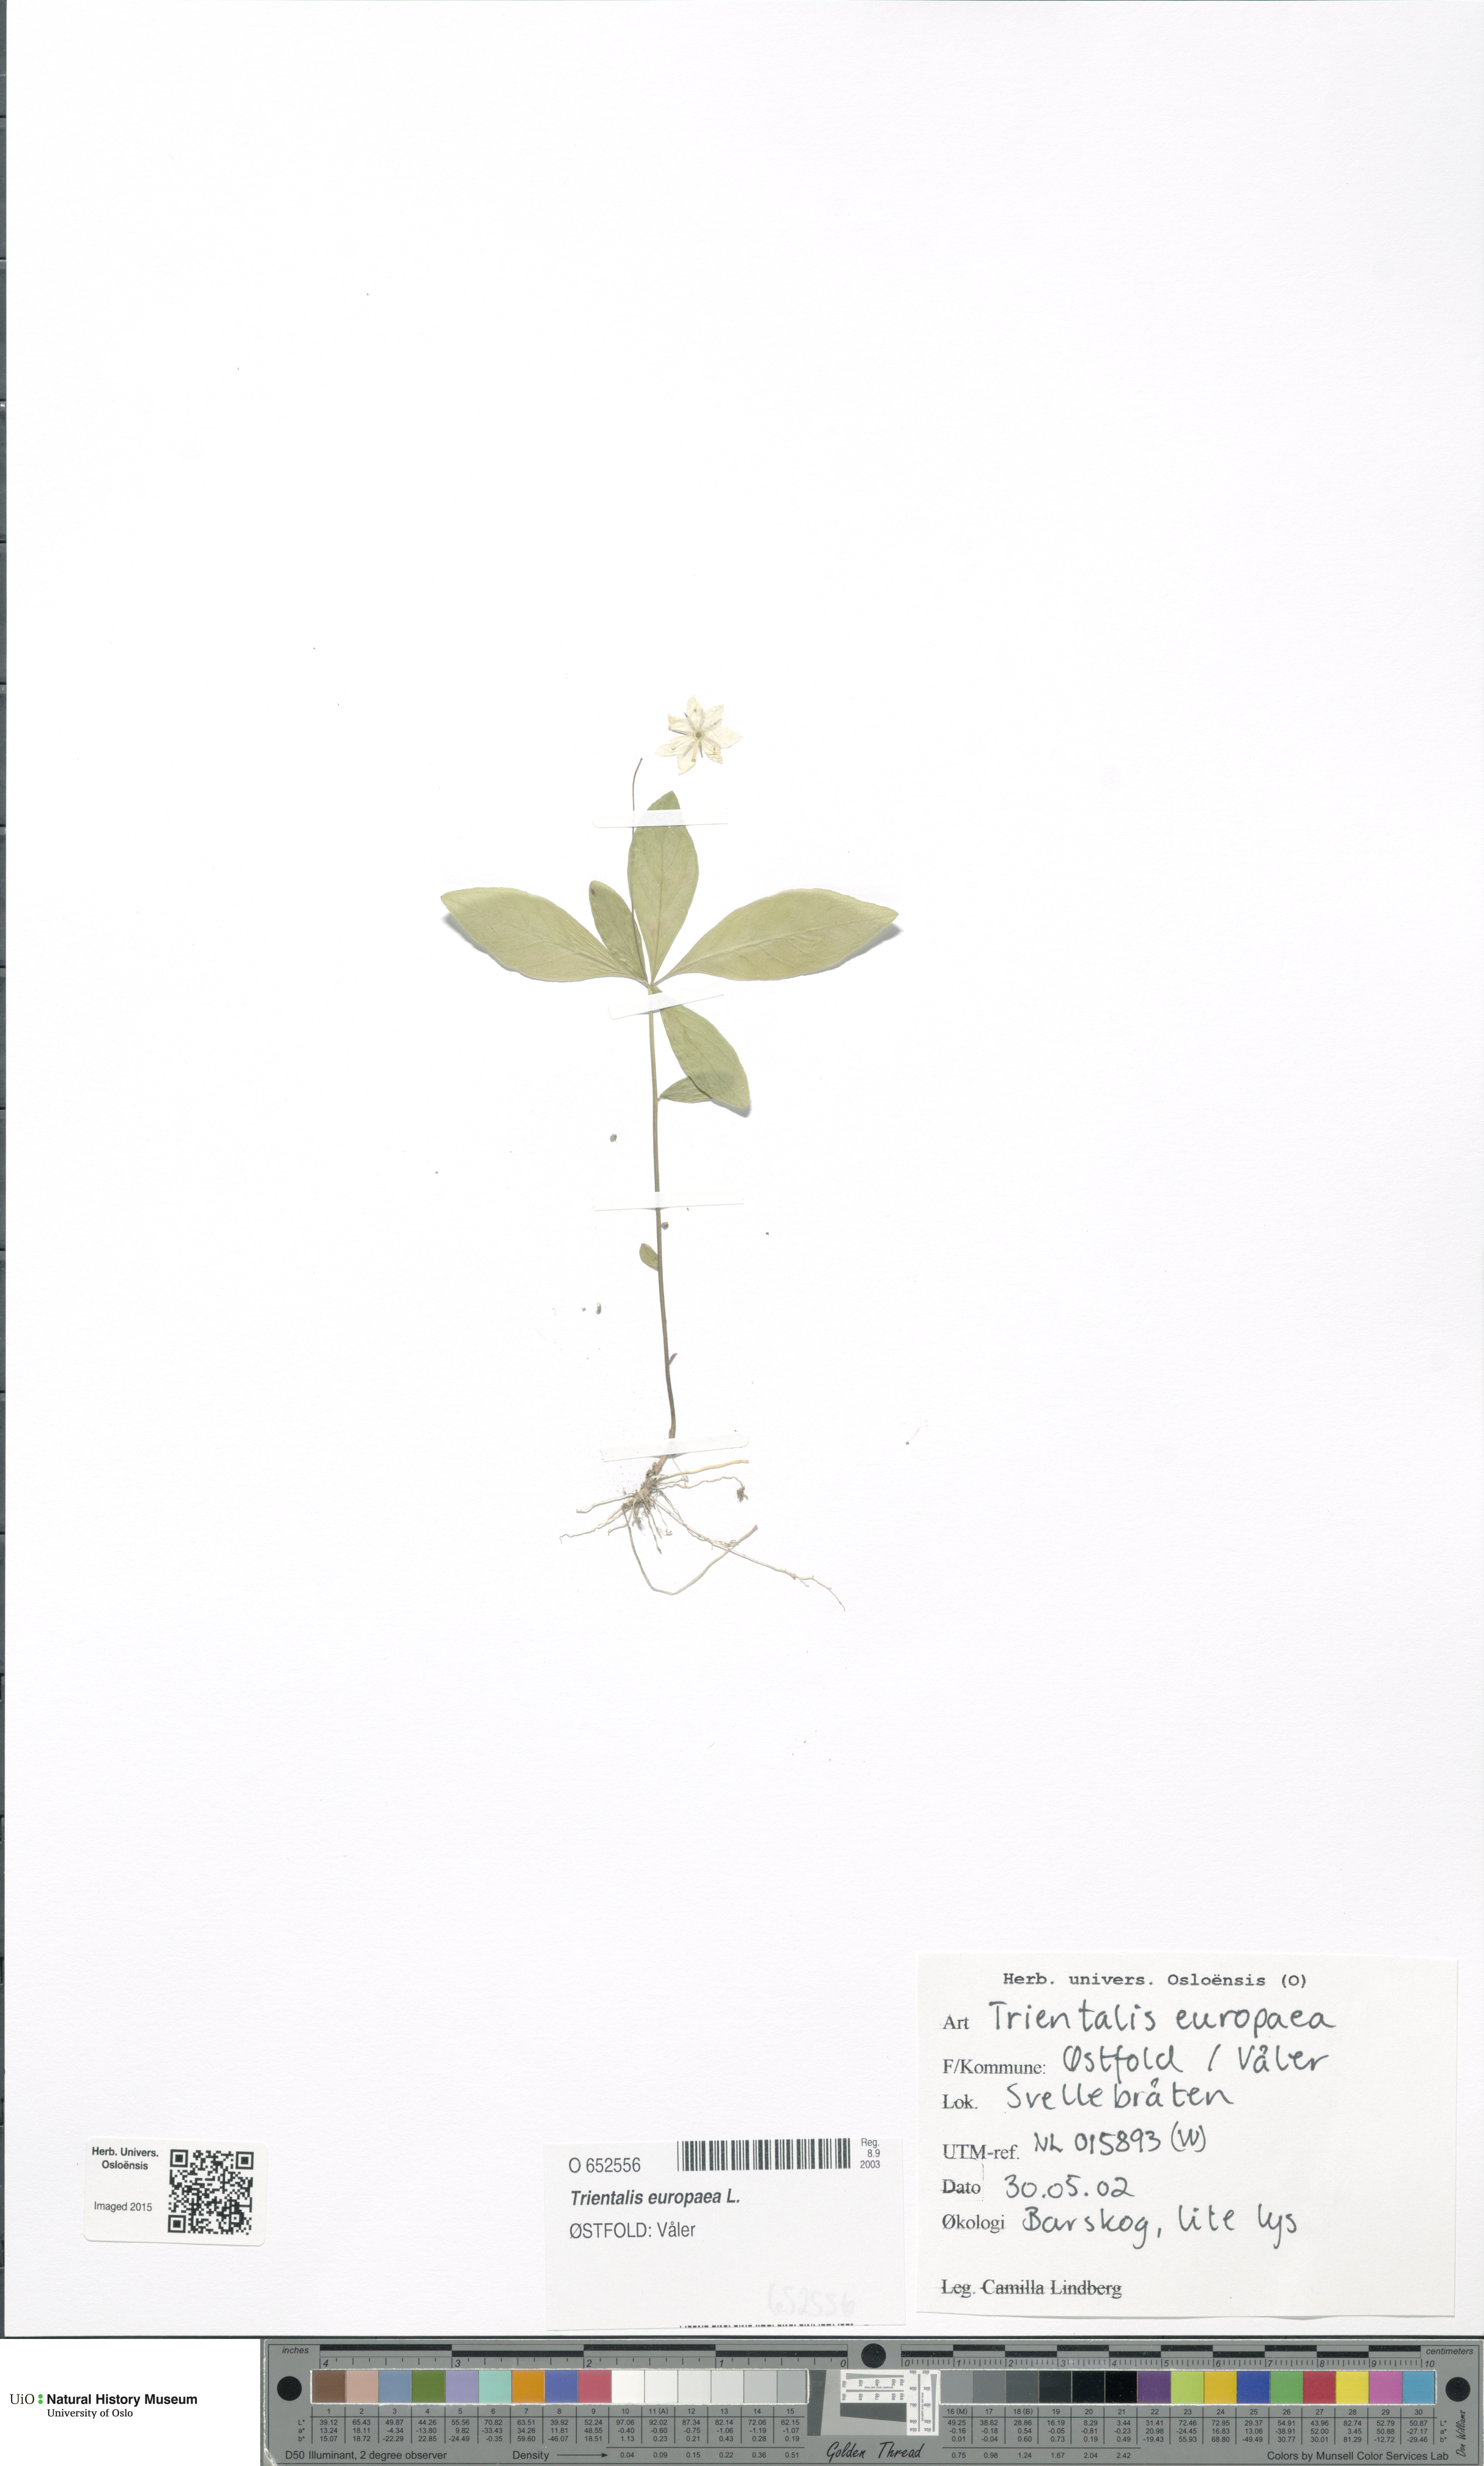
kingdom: Plantae
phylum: Tracheophyta
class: Magnoliopsida
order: Ericales
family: Primulaceae
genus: Lysimachia
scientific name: Lysimachia europaea
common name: Arctic starflower
